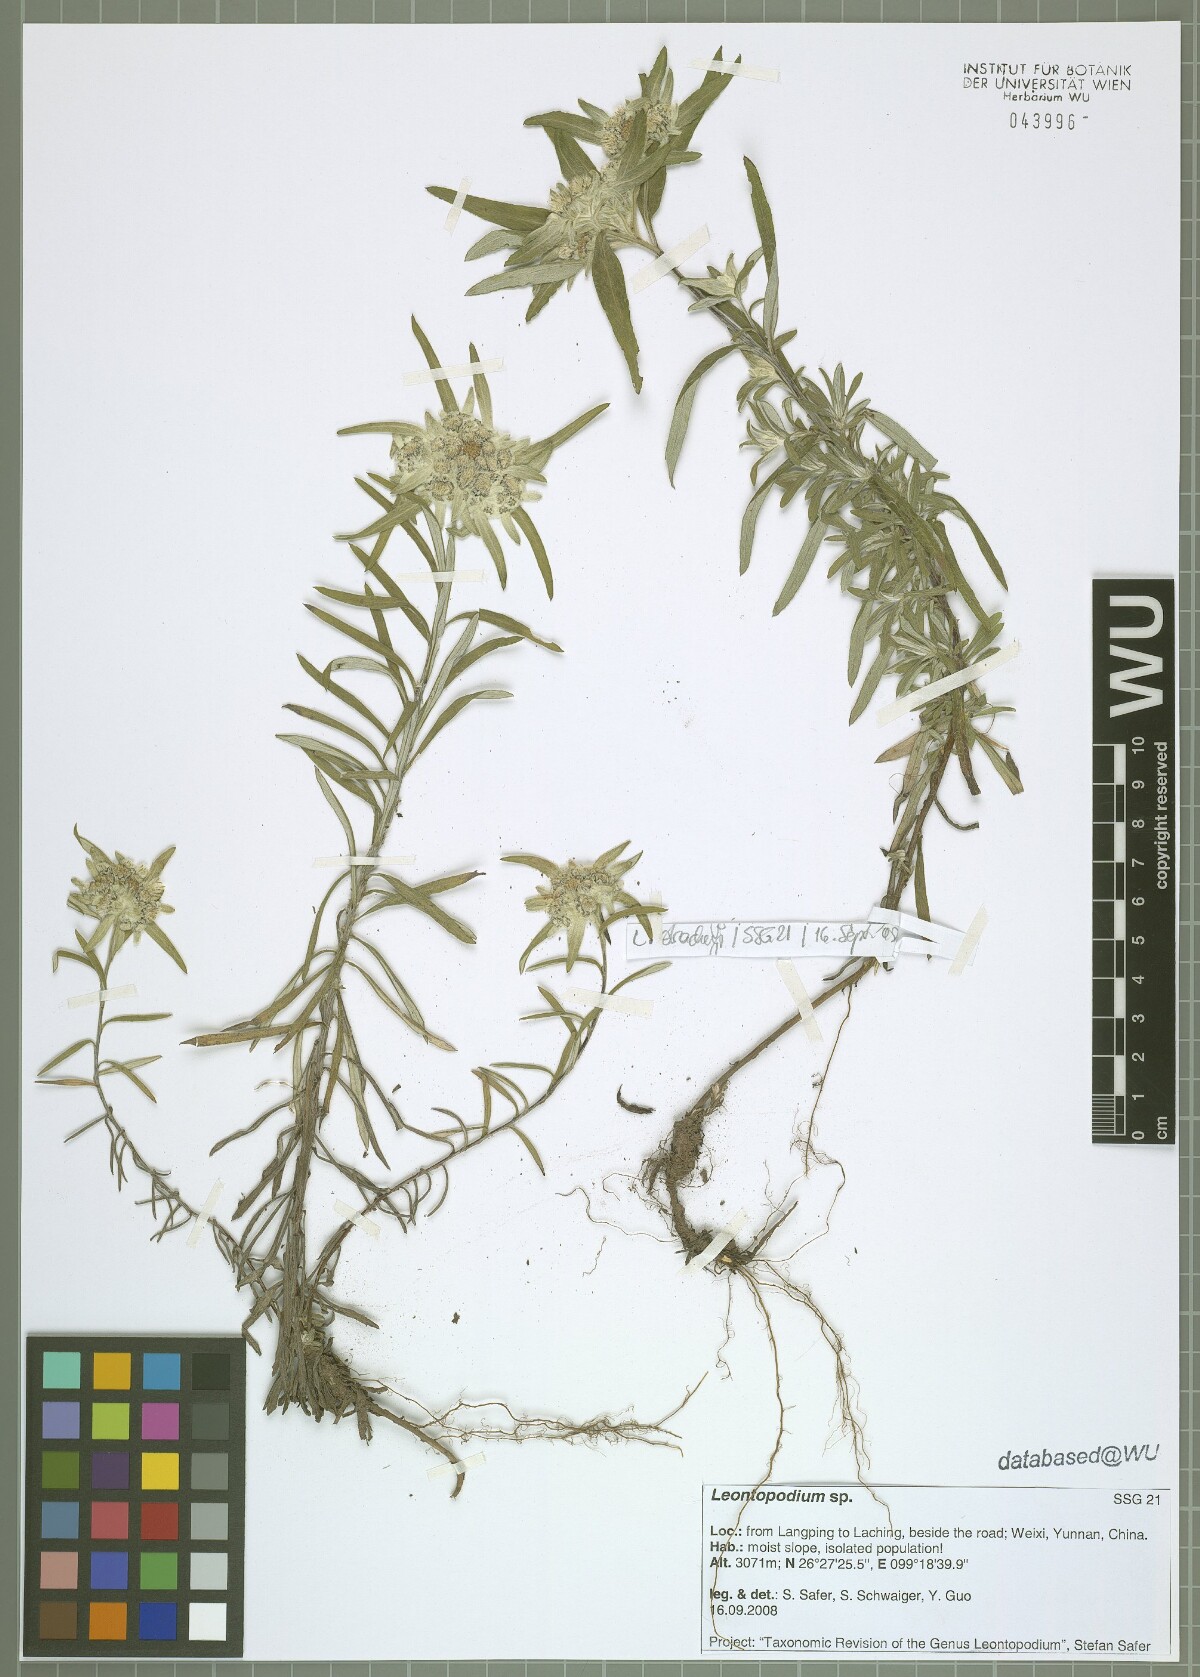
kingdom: Plantae
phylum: Tracheophyta
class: Magnoliopsida
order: Asterales
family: Asteraceae
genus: Leontopodium
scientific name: Leontopodium
